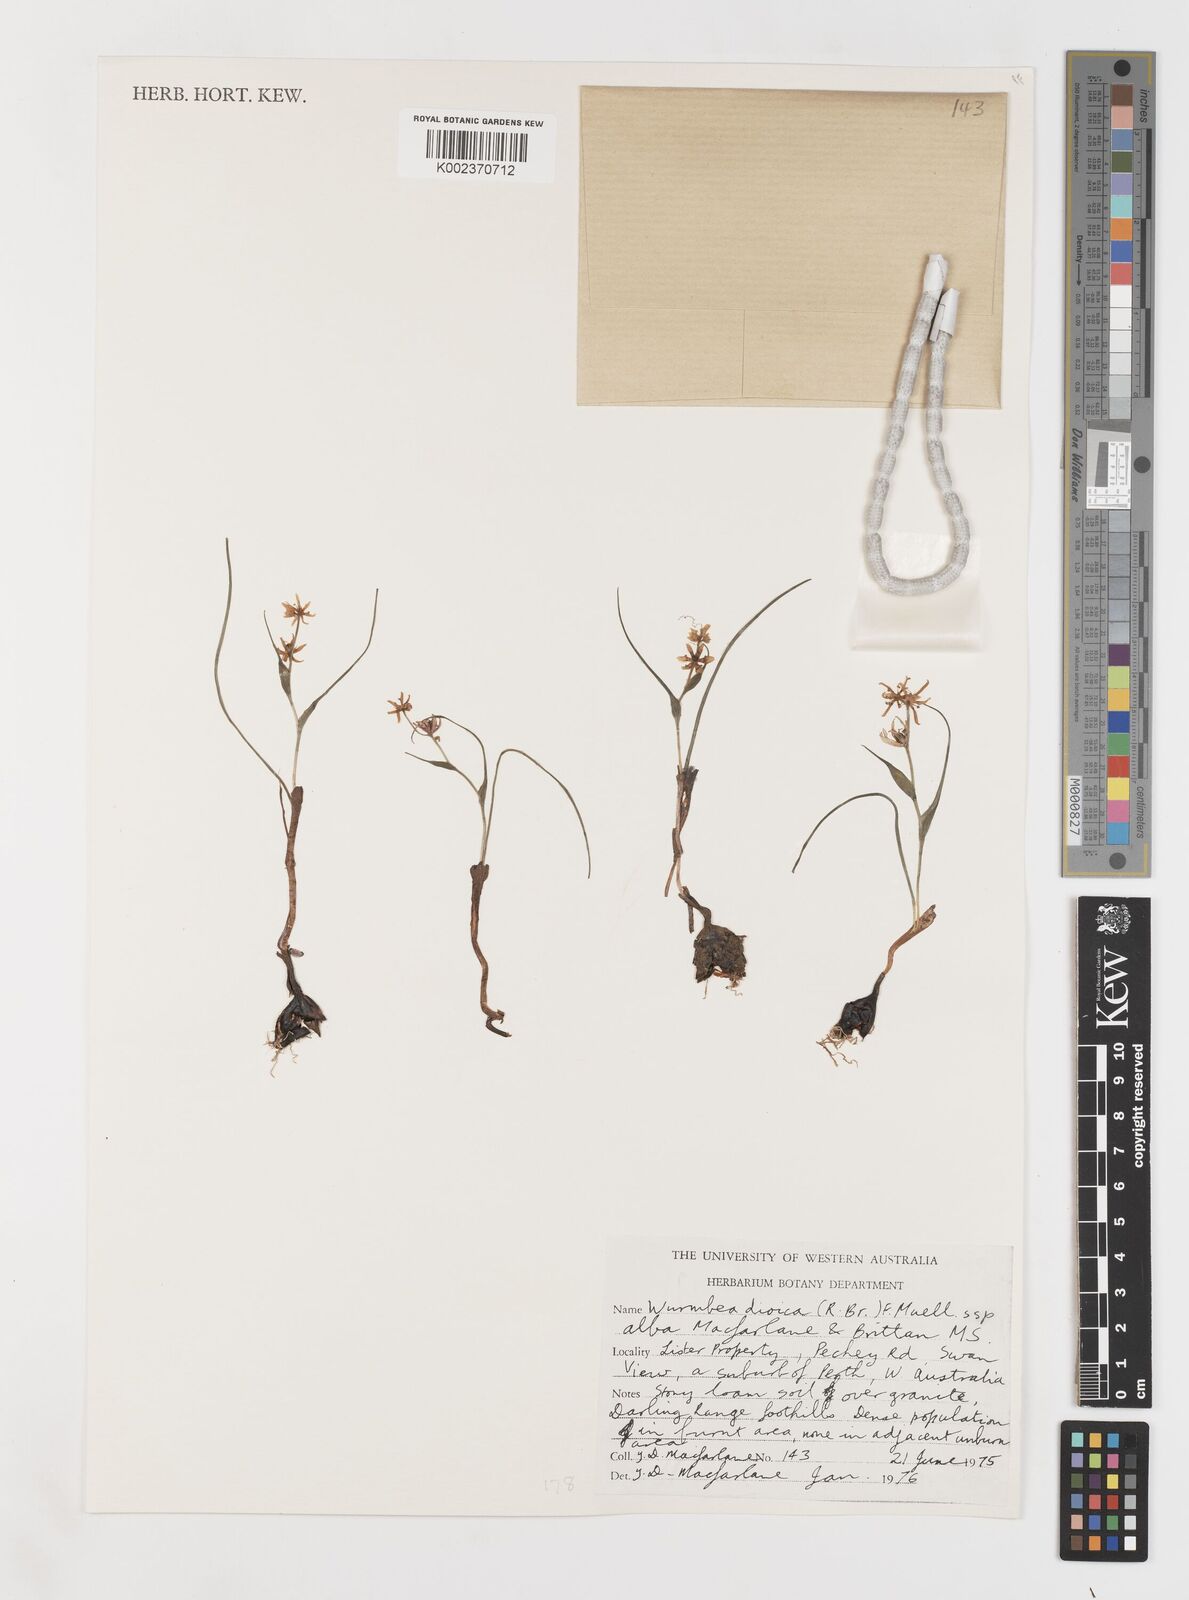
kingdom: Plantae
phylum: Tracheophyta
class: Liliopsida
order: Liliales
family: Colchicaceae
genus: Wurmbea
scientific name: Wurmbea dioica
